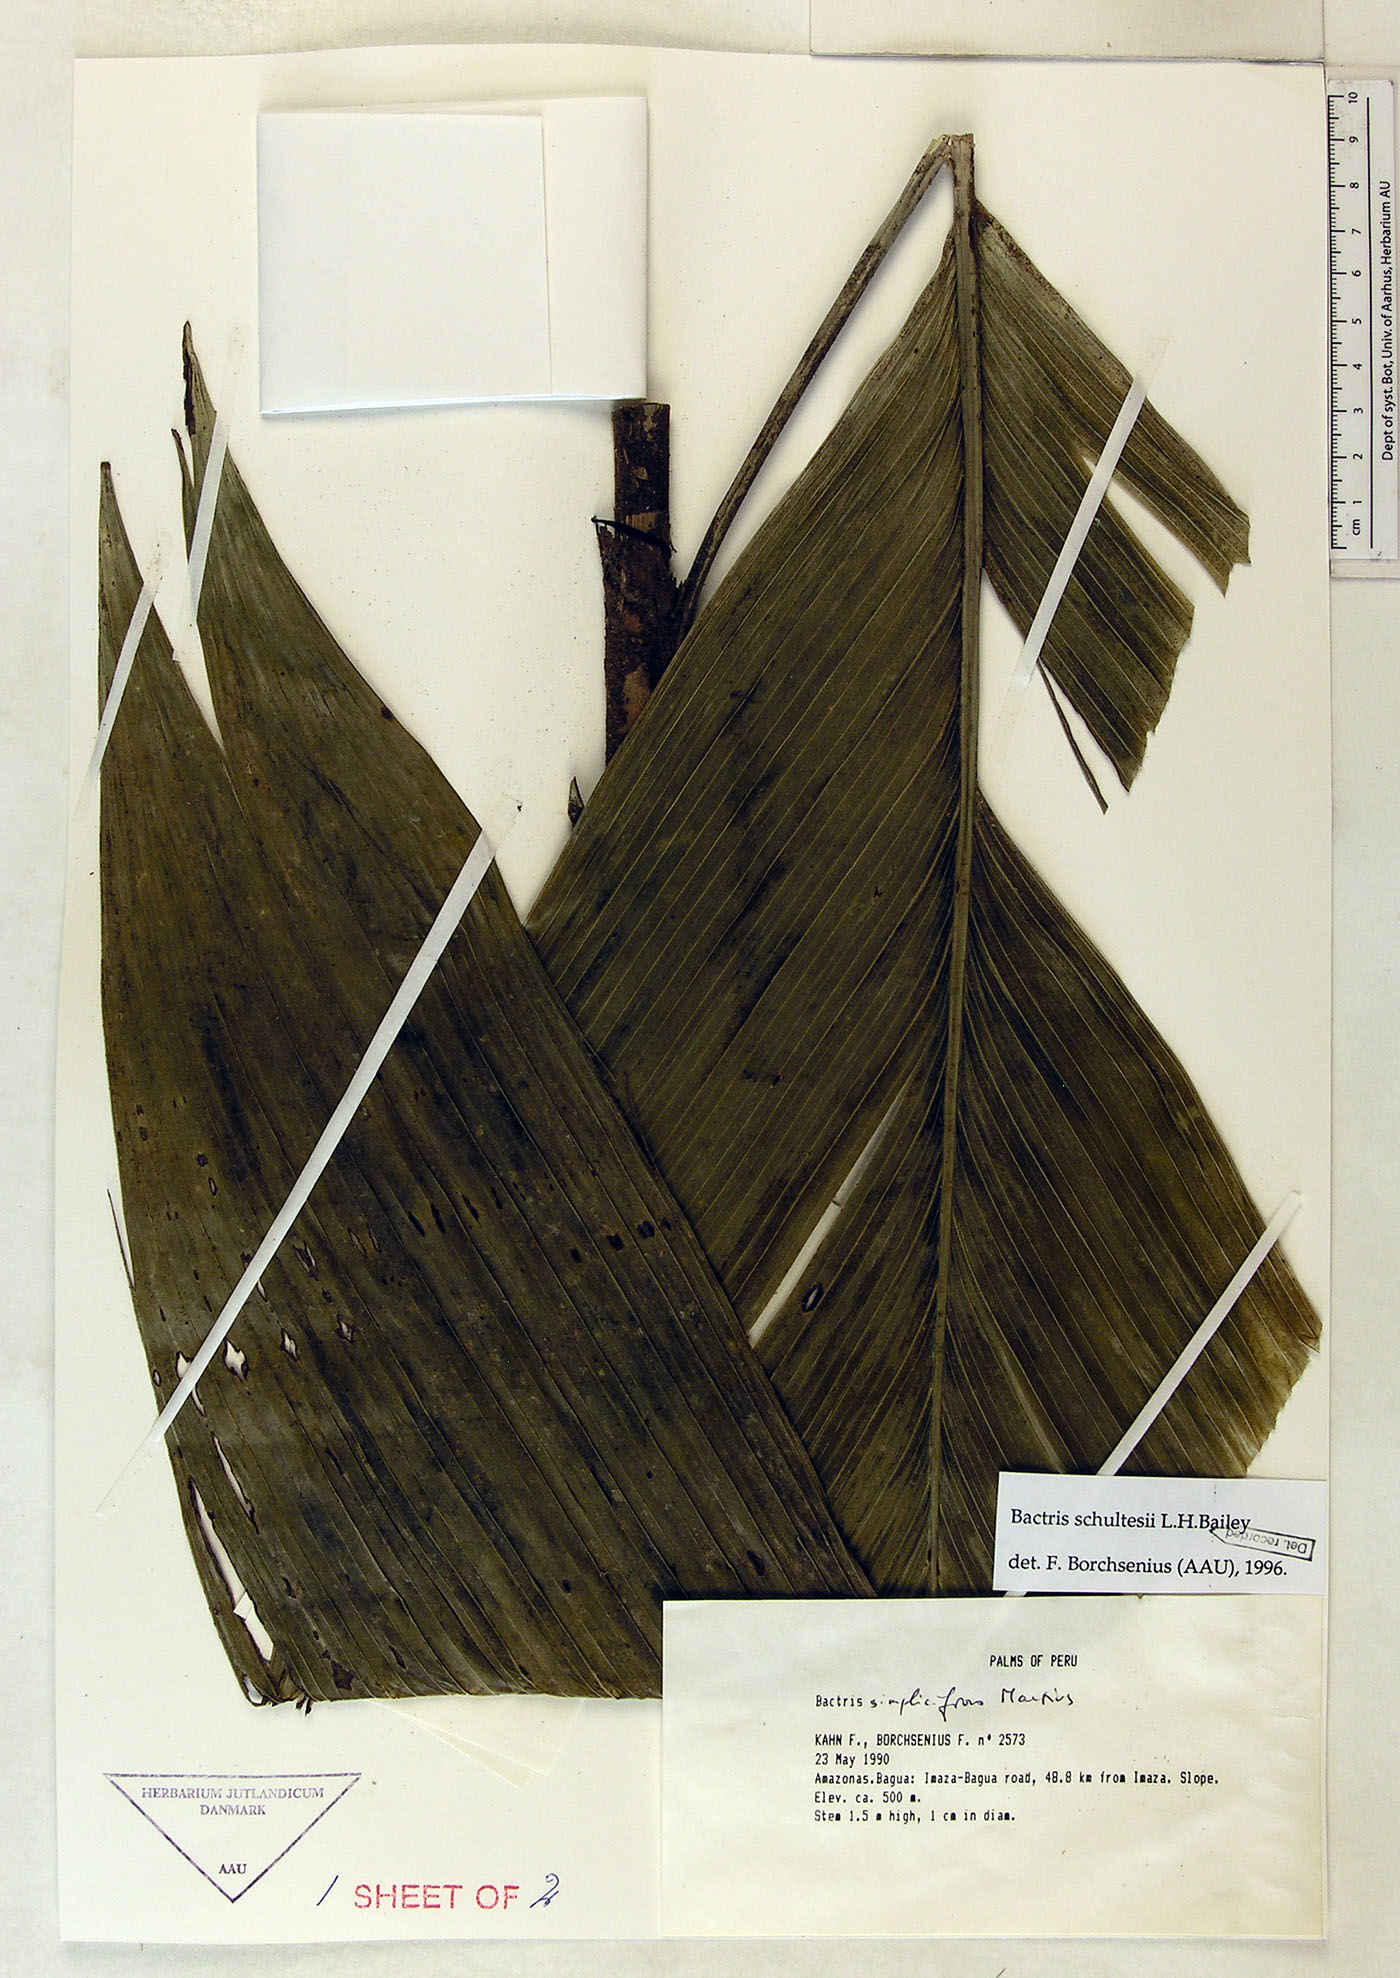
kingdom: Plantae
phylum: Tracheophyta
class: Liliopsida
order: Arecales
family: Arecaceae
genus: Bactris
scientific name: Bactris schultesii
